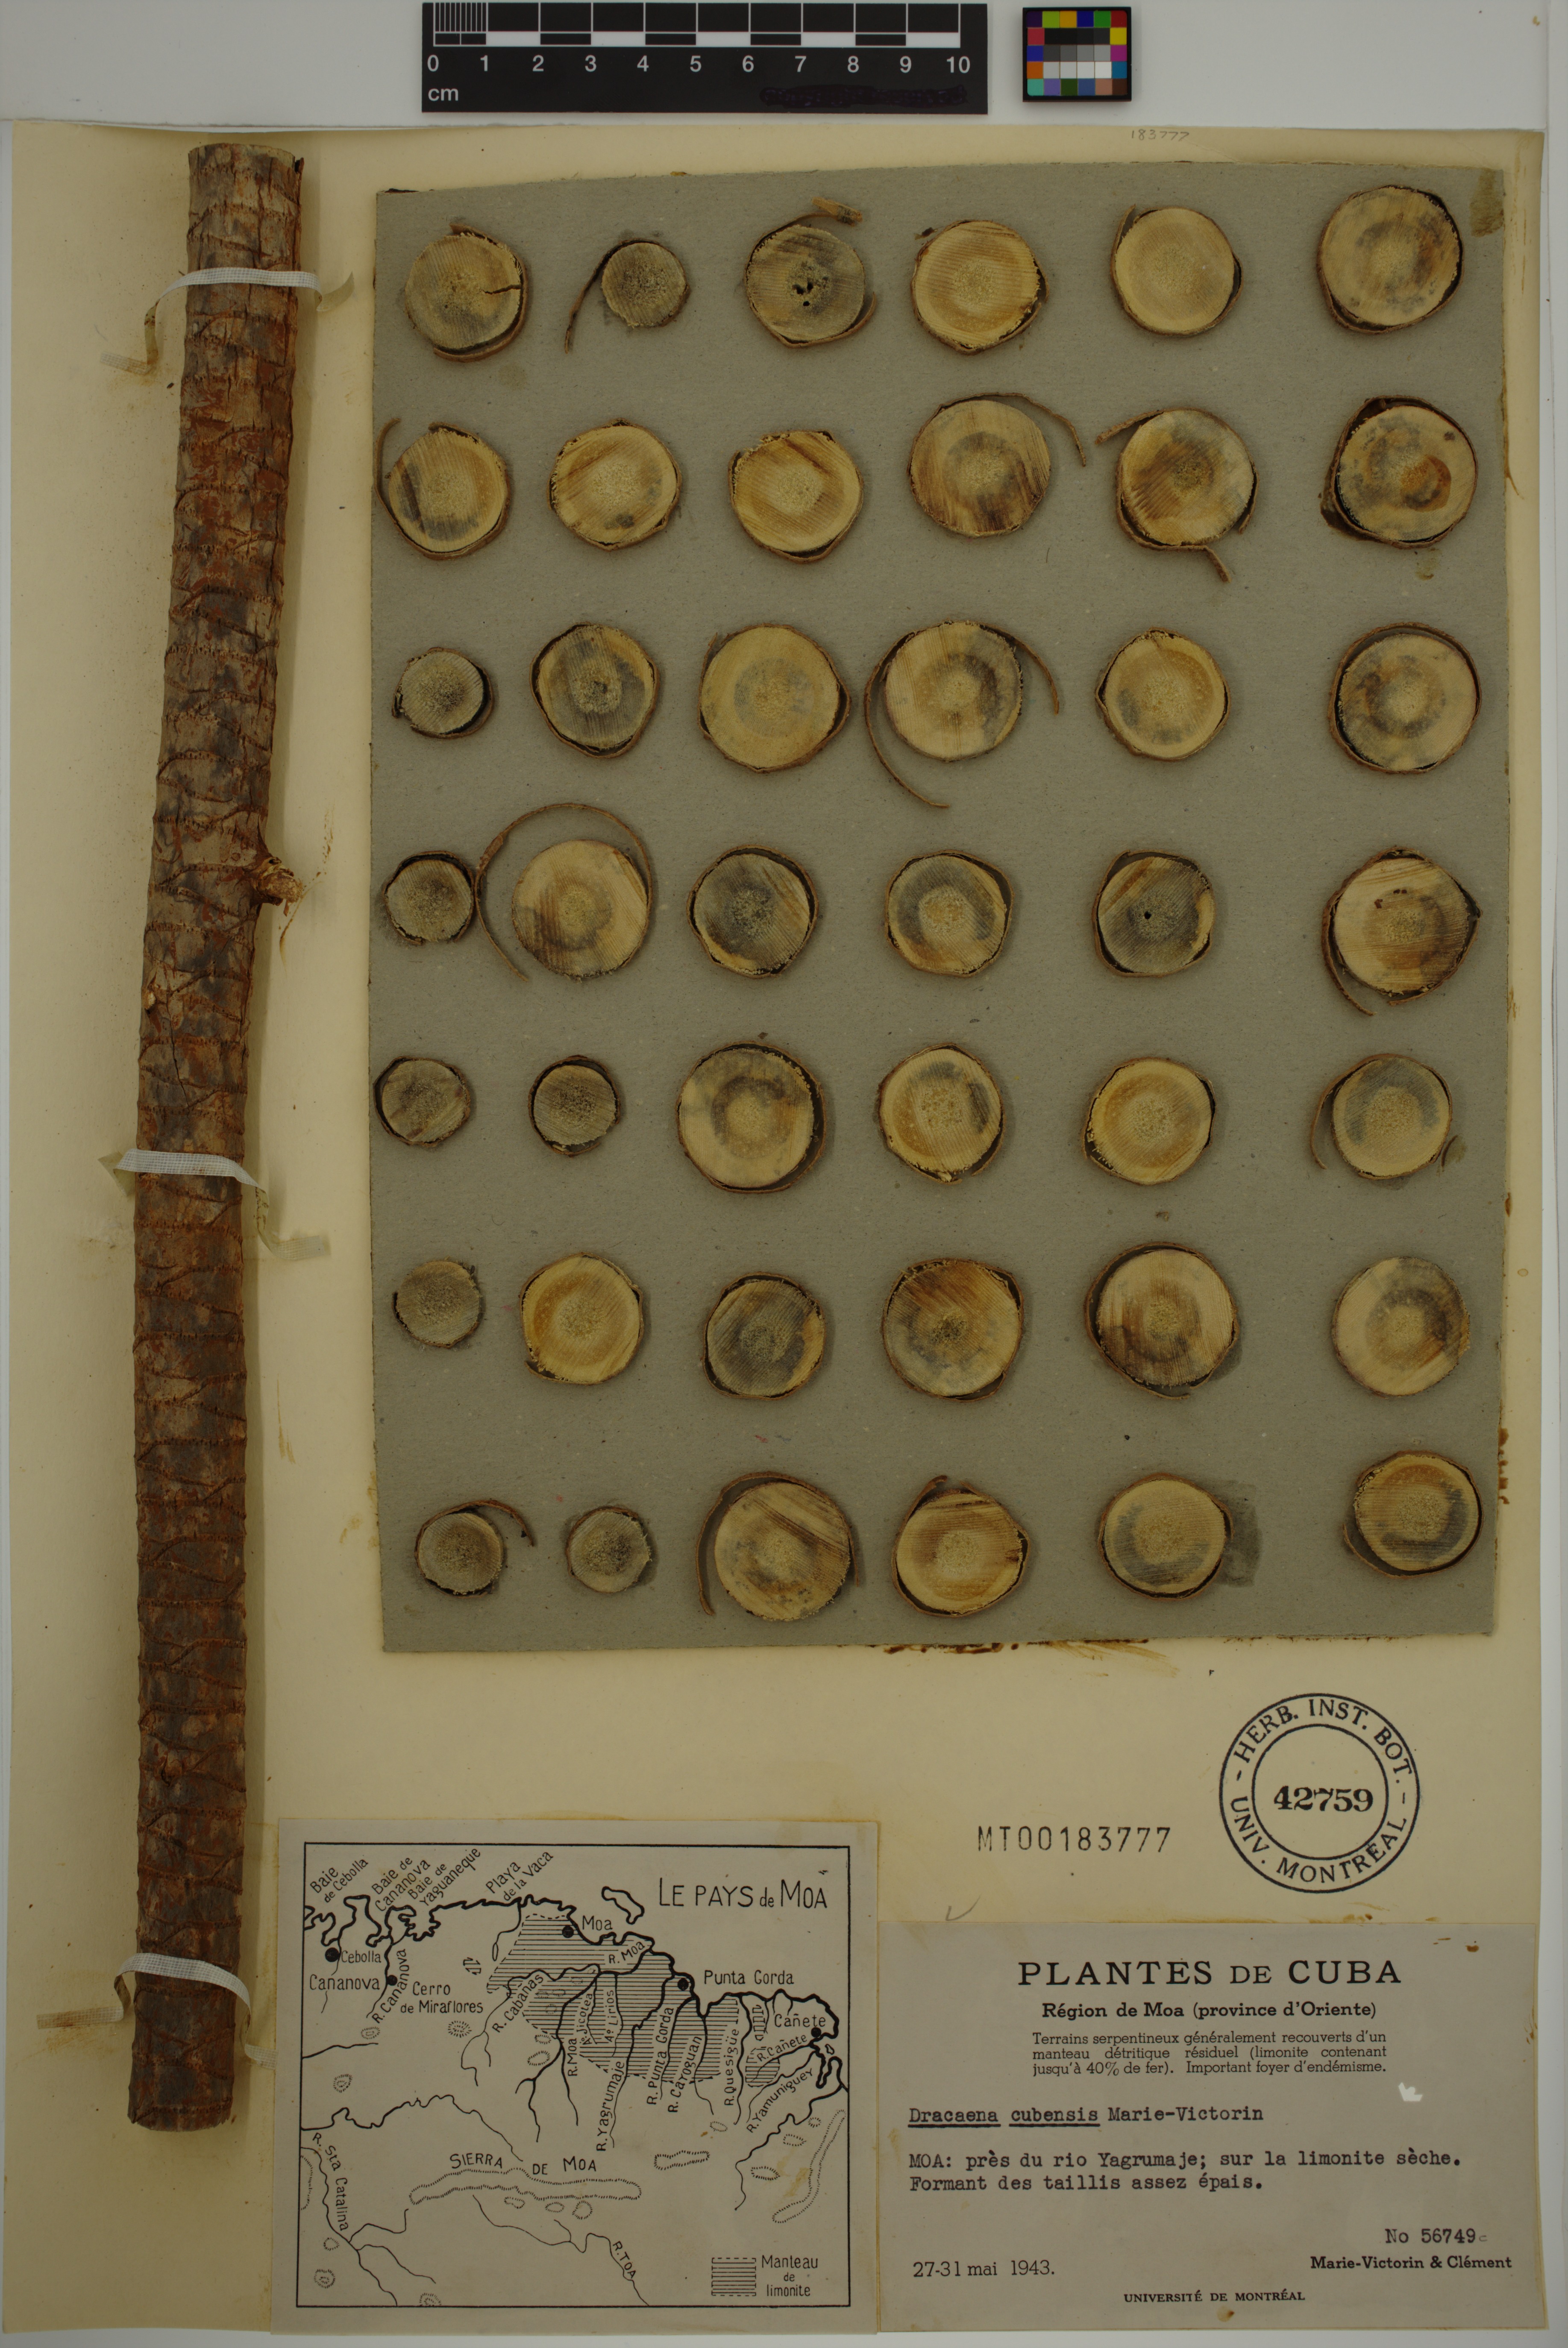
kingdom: Plantae
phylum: Tracheophyta
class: Liliopsida
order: Asparagales
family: Asparagaceae
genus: Dracaena
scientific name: Dracaena cubensis
